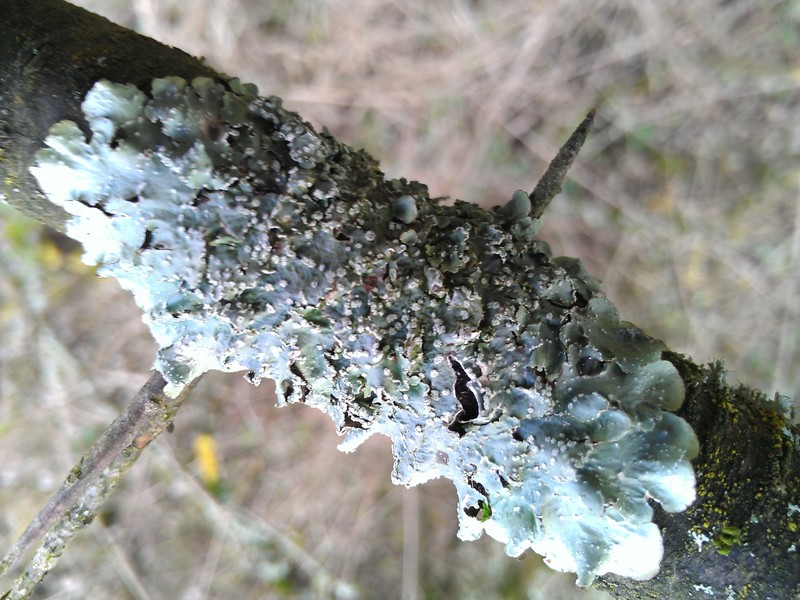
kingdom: Fungi
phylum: Ascomycota
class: Lecanoromycetes
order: Lecanorales
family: Parmeliaceae
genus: Punctelia
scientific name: Punctelia subrudecta
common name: Powdered speckled shield lichen
